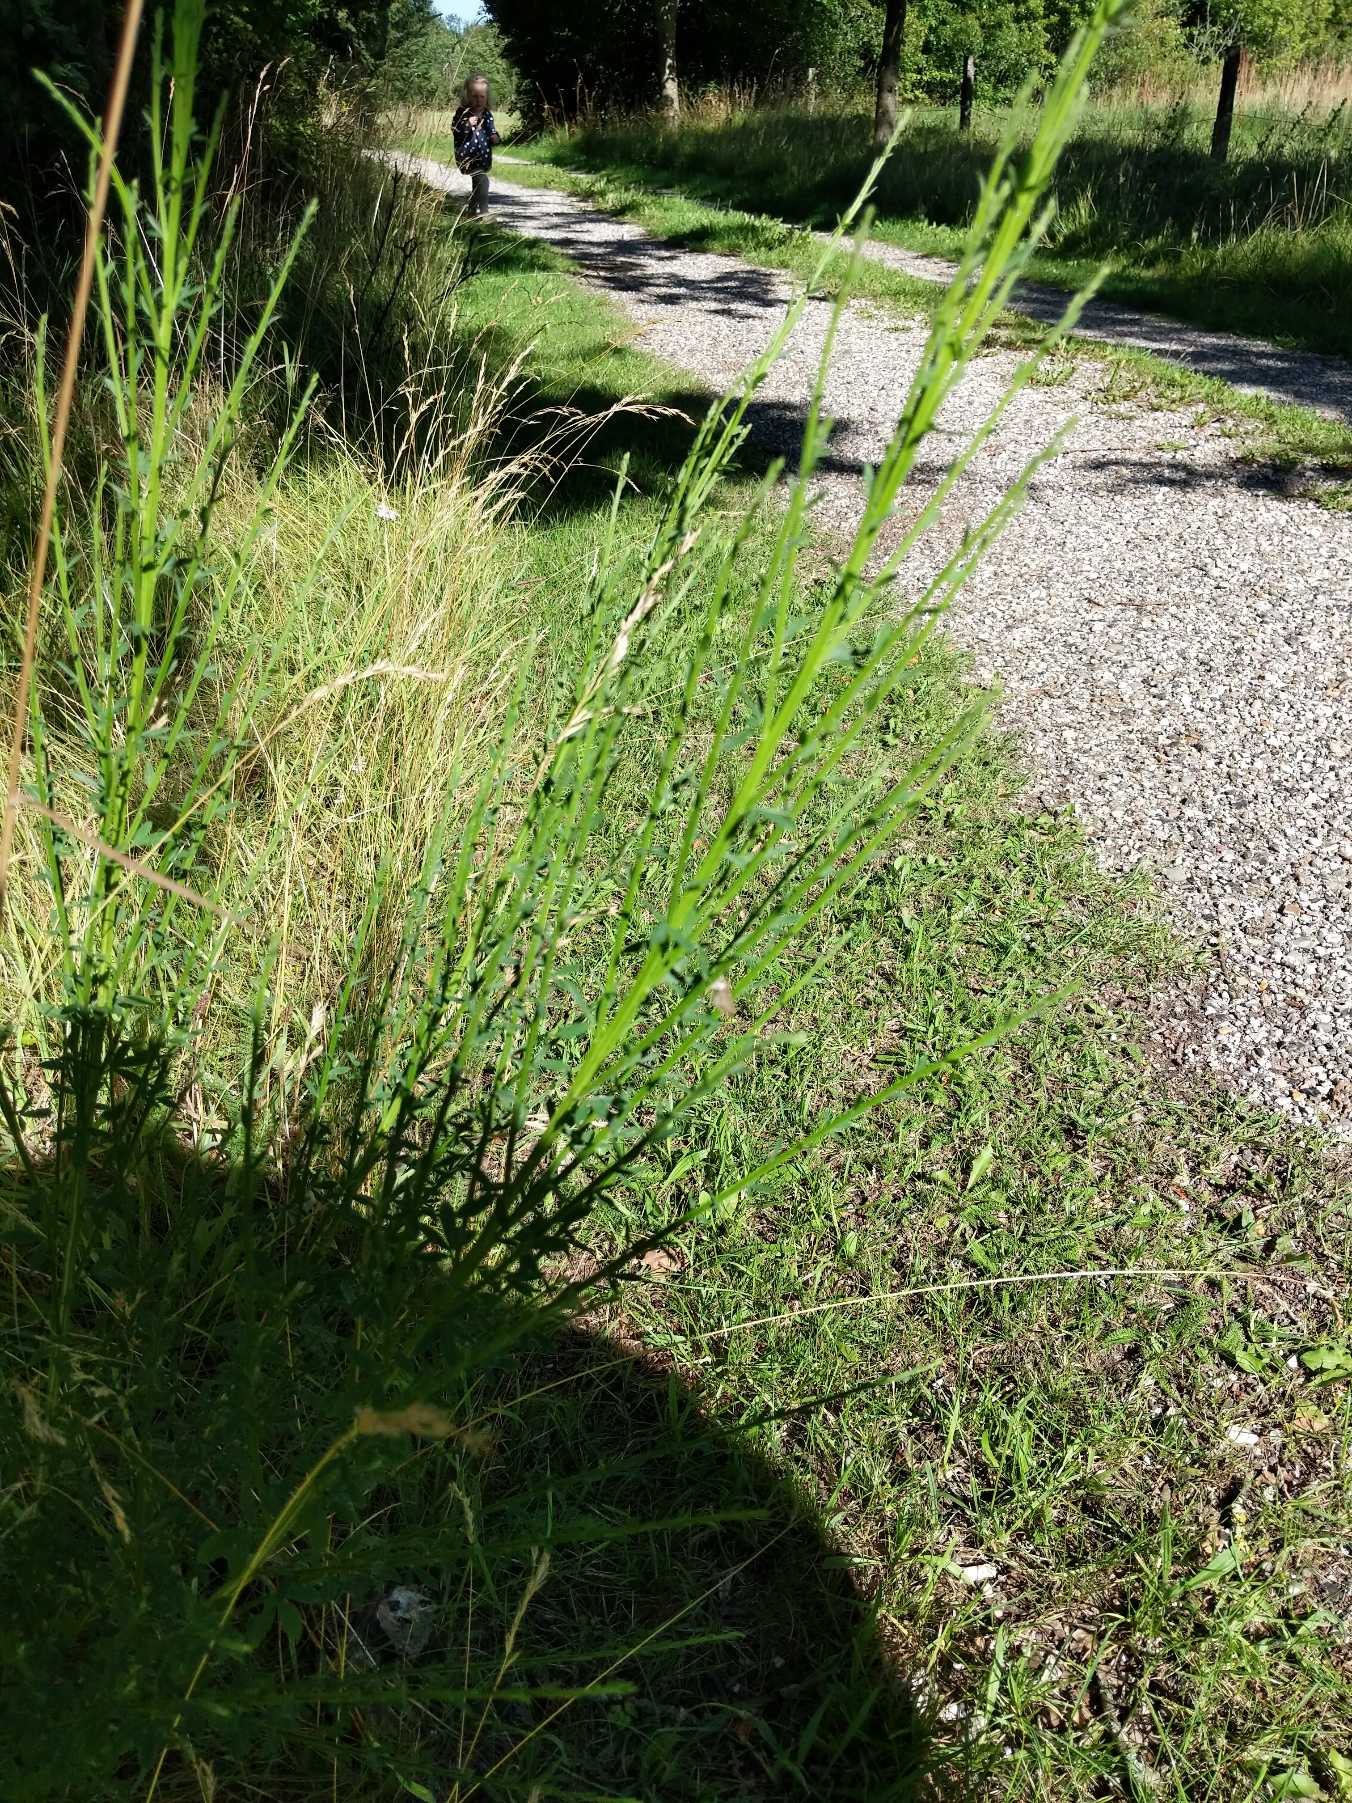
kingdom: Plantae
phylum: Tracheophyta
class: Magnoliopsida
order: Fabales
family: Fabaceae
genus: Cytisus
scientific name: Cytisus scoparius
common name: Almindelig gyvel
